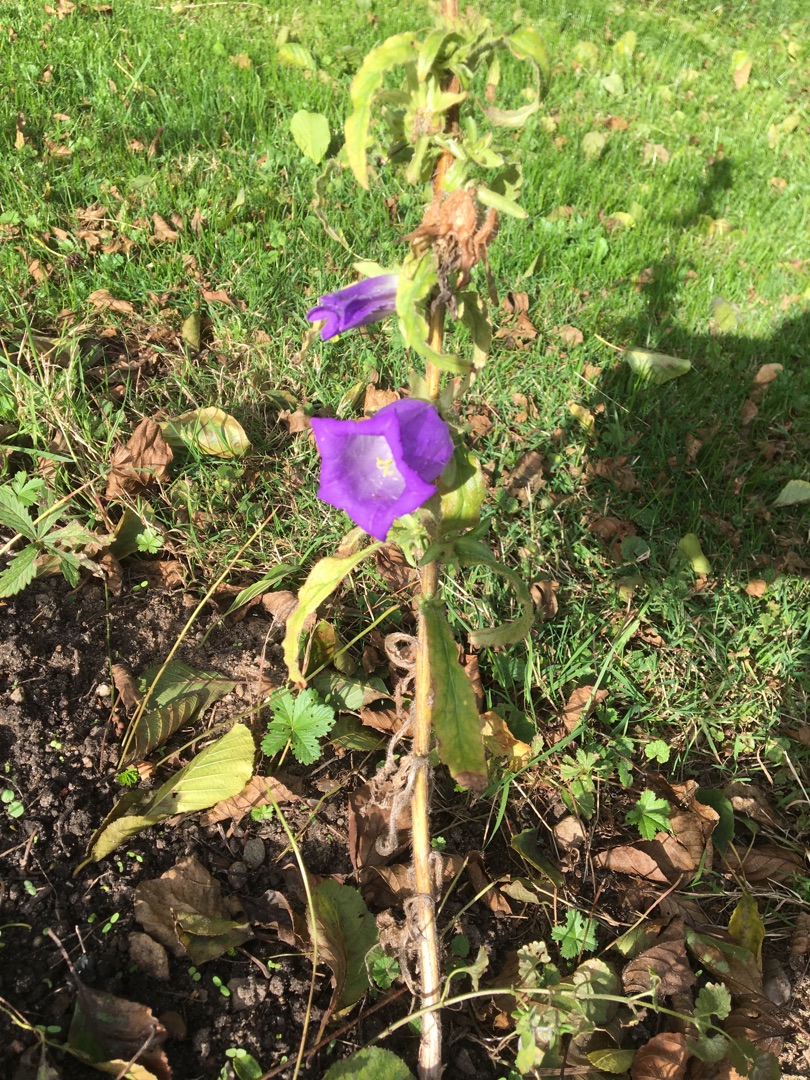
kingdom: Plantae
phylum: Tracheophyta
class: Magnoliopsida
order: Asterales
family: Campanulaceae
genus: Campanula
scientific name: Campanula medium
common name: Marie-klokke
